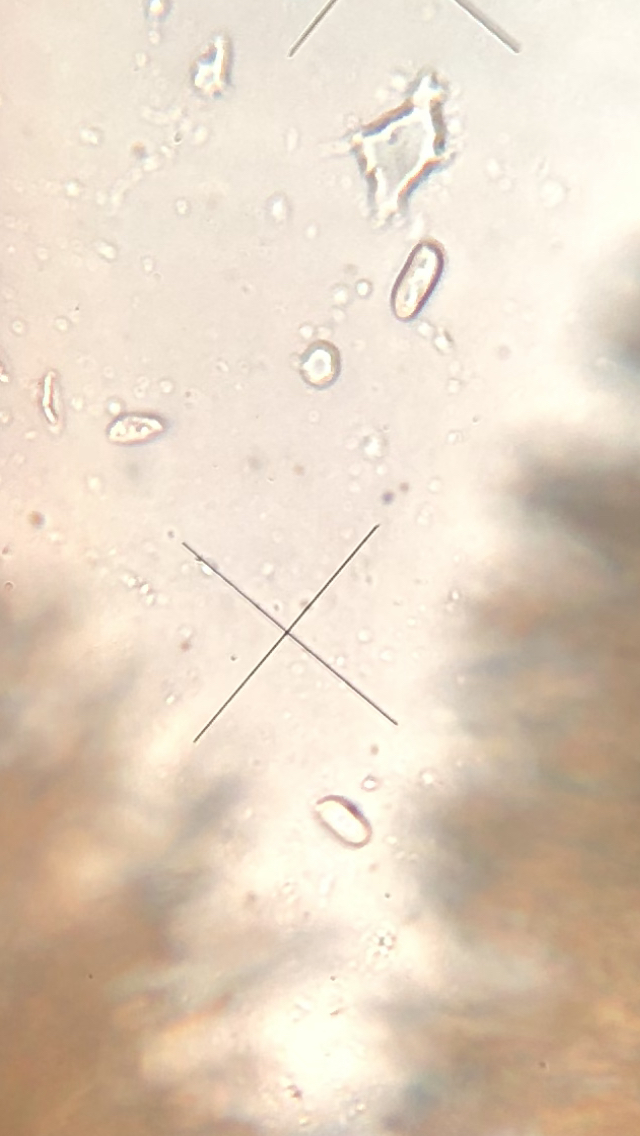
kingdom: Fungi
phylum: Basidiomycota
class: Agaricomycetes
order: Agaricales
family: Niaceae
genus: Merismodes
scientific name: Merismodes anomala
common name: almindelig læderskål
